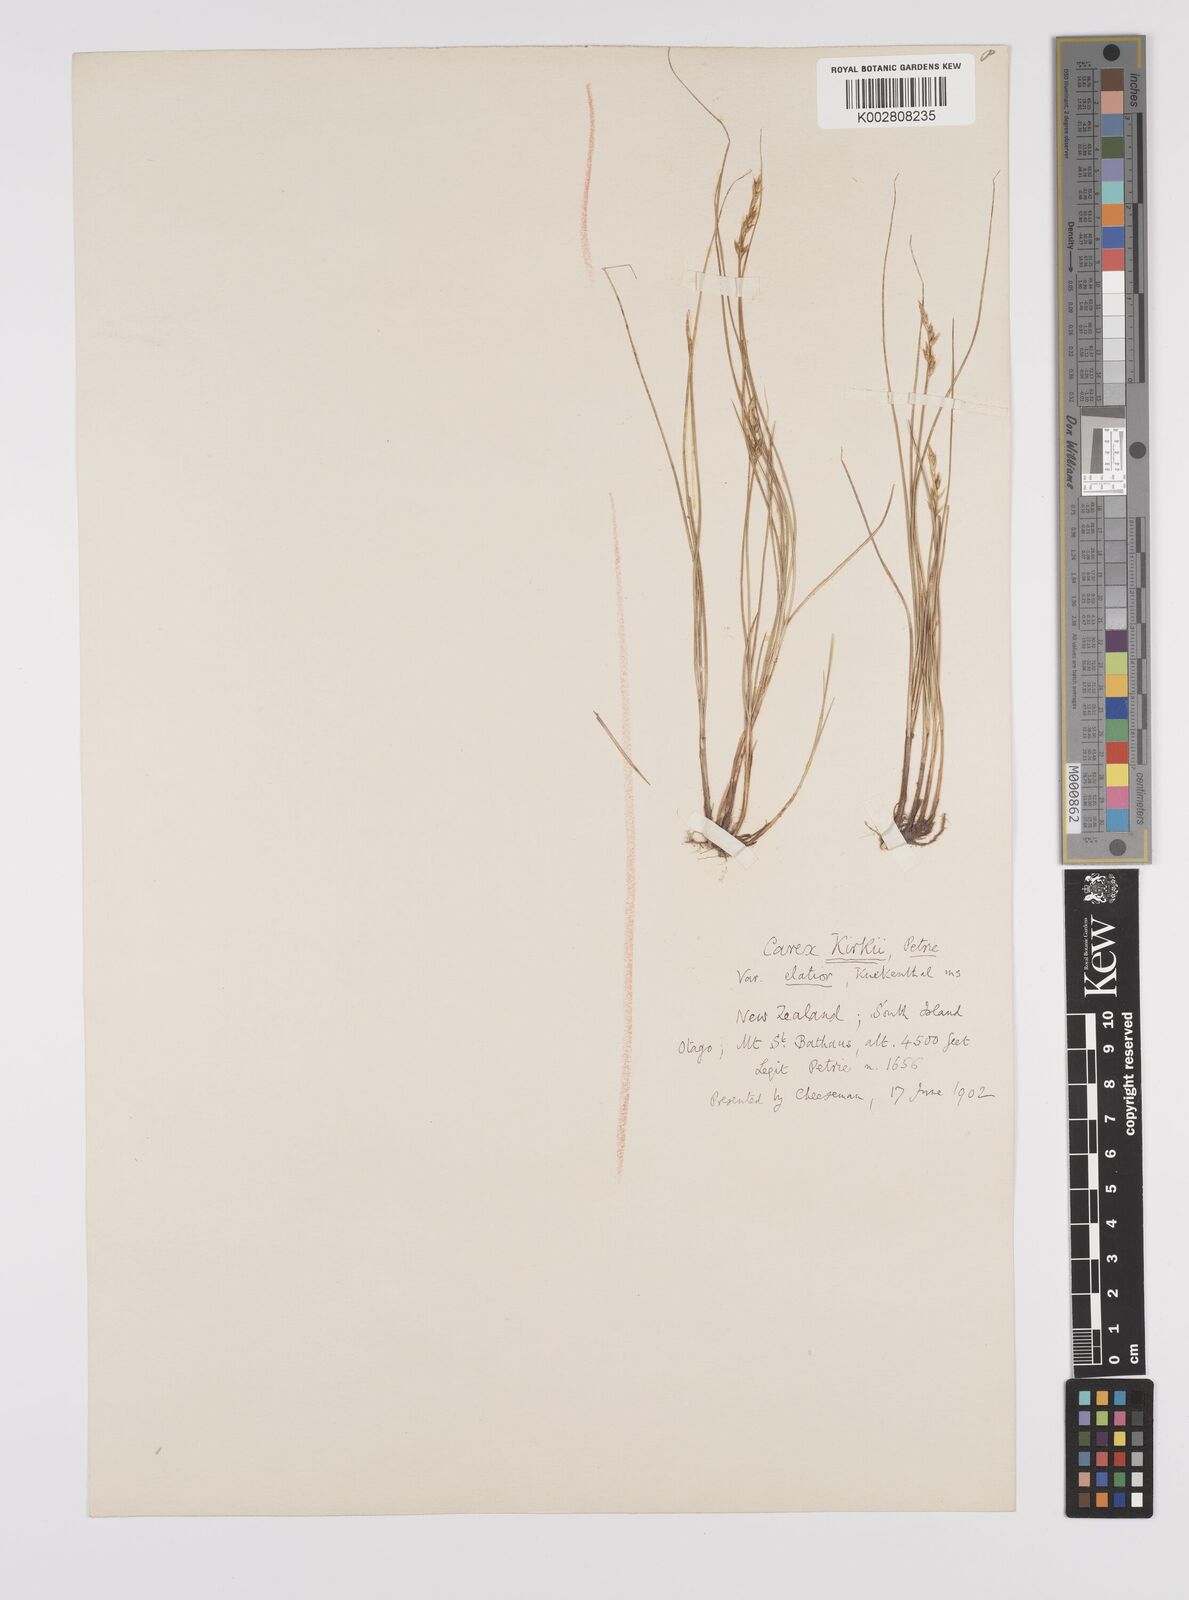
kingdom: Plantae
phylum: Tracheophyta
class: Liliopsida
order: Poales
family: Cyperaceae
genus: Carex
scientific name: Carex kirkii
